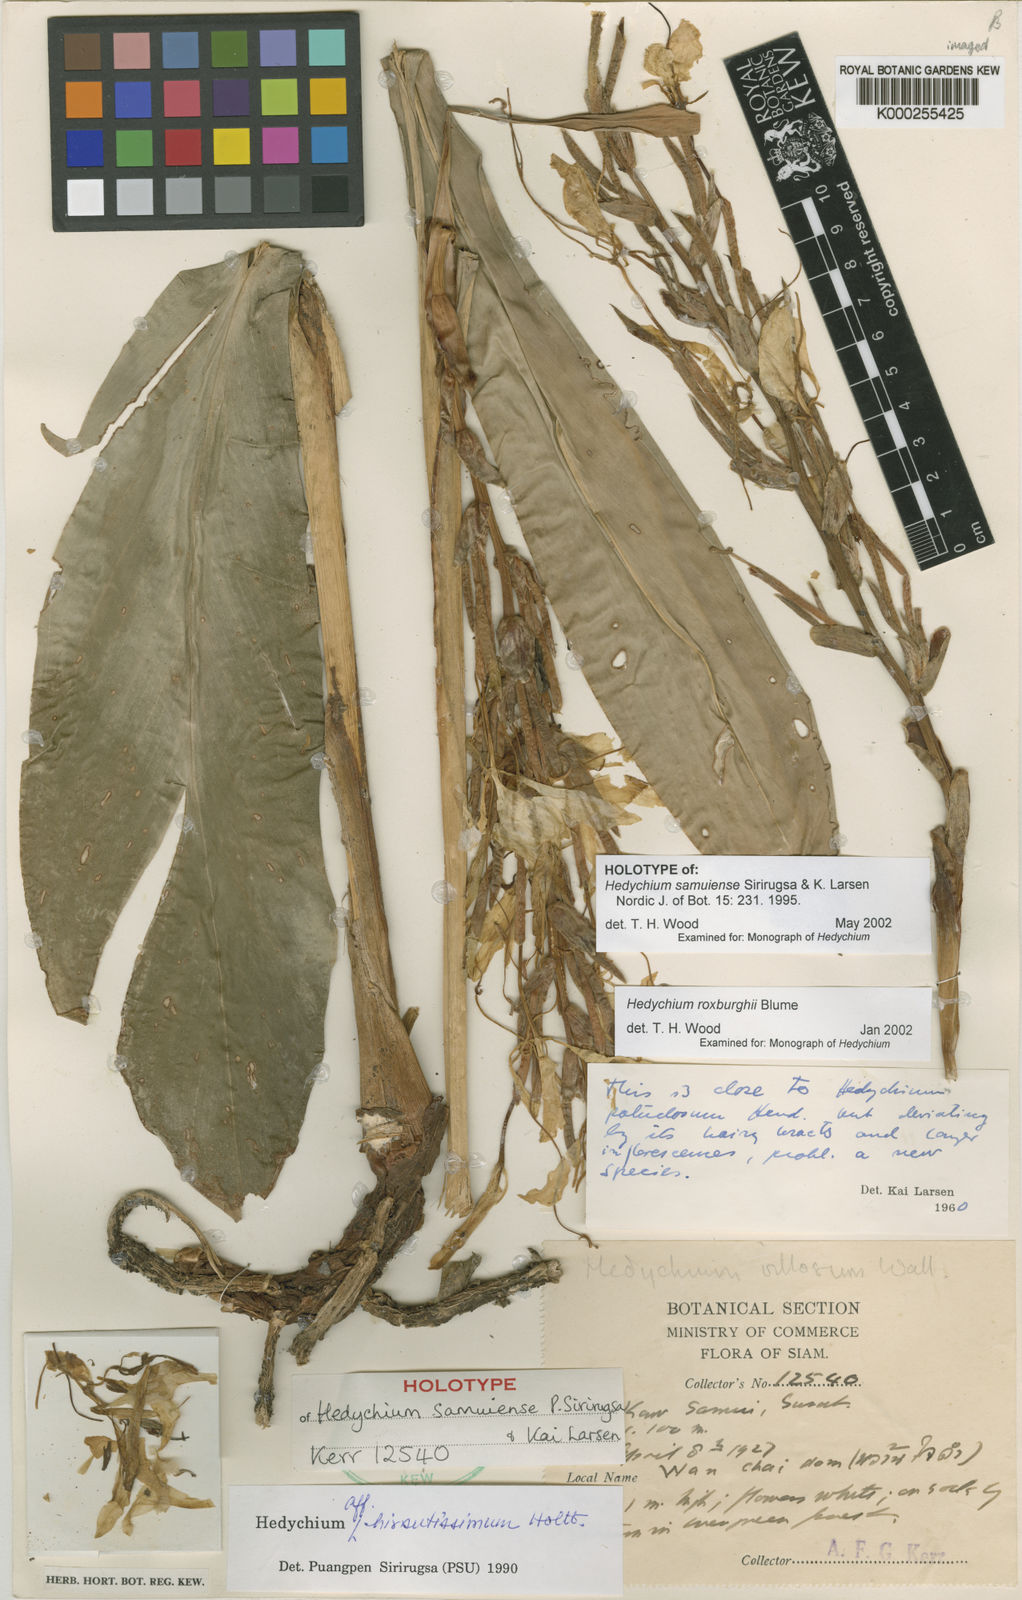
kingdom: Plantae
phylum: Tracheophyta
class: Liliopsida
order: Zingiberales
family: Zingiberaceae
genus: Hedychium
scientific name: Hedychium samuiense
